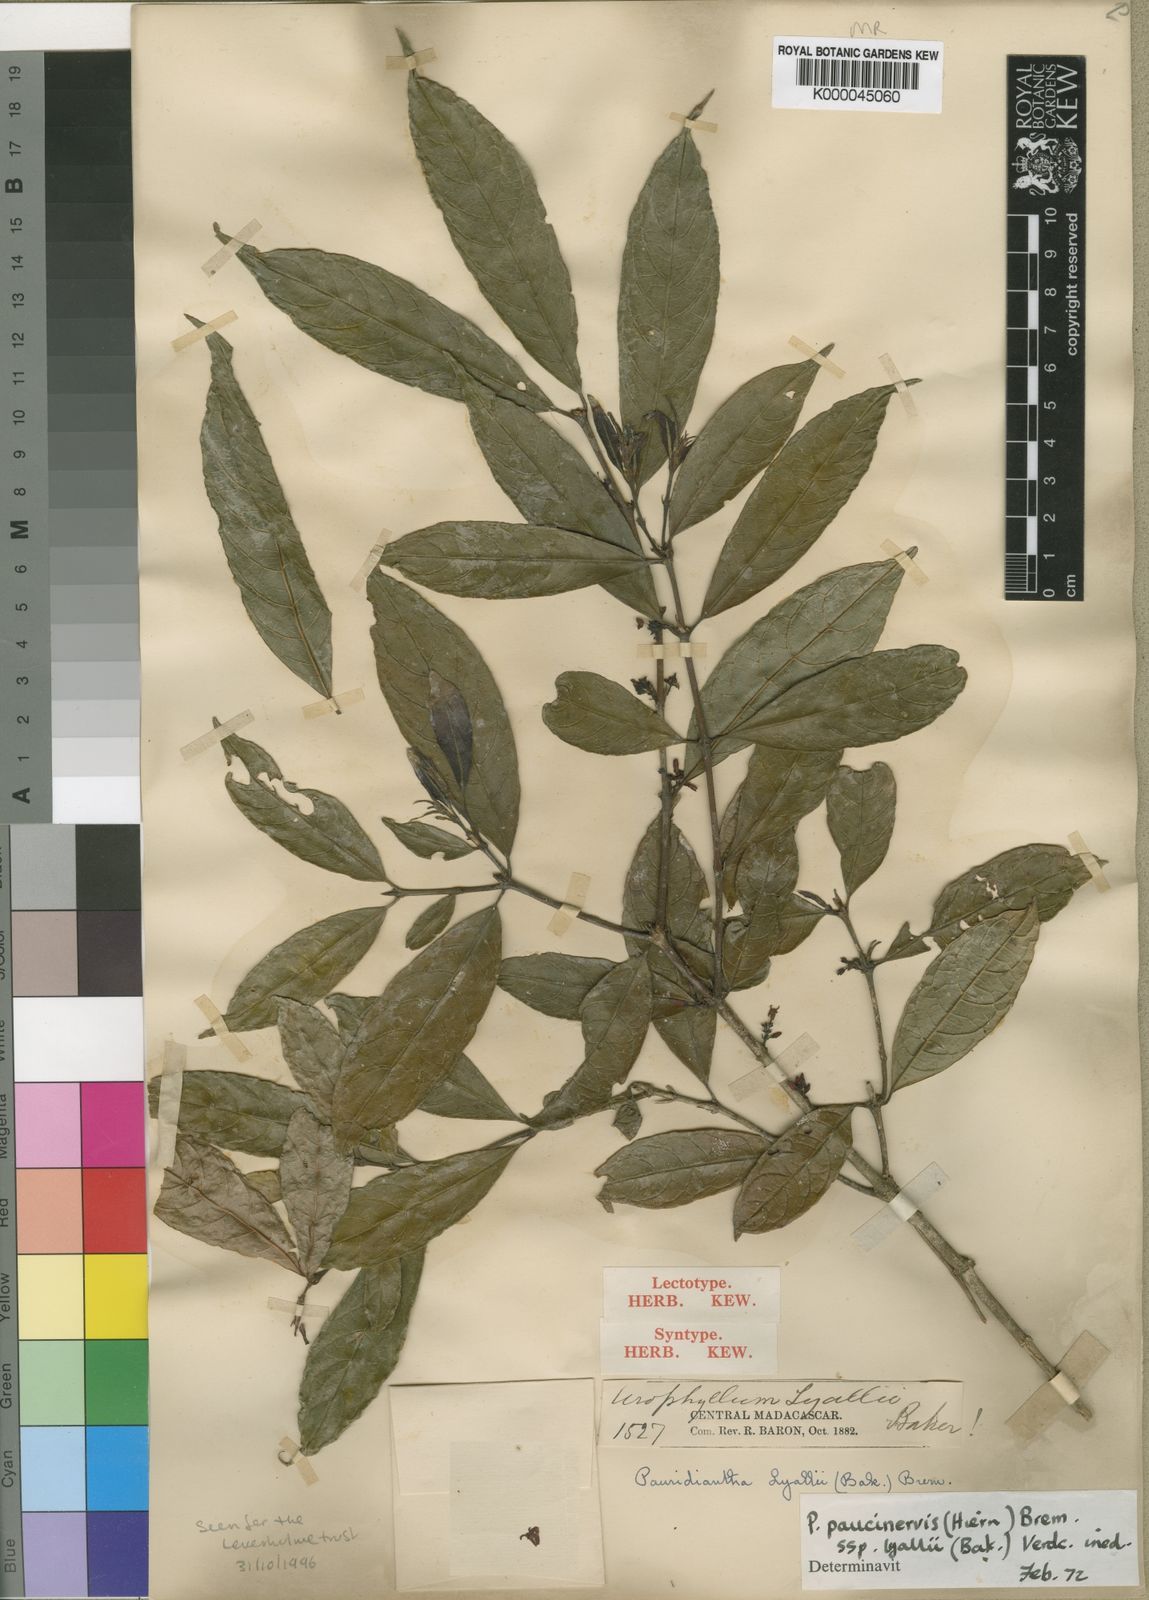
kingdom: Plantae
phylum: Tracheophyta
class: Magnoliopsida
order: Gentianales
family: Rubiaceae
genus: Pauridiantha
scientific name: Pauridiantha paucinervis
